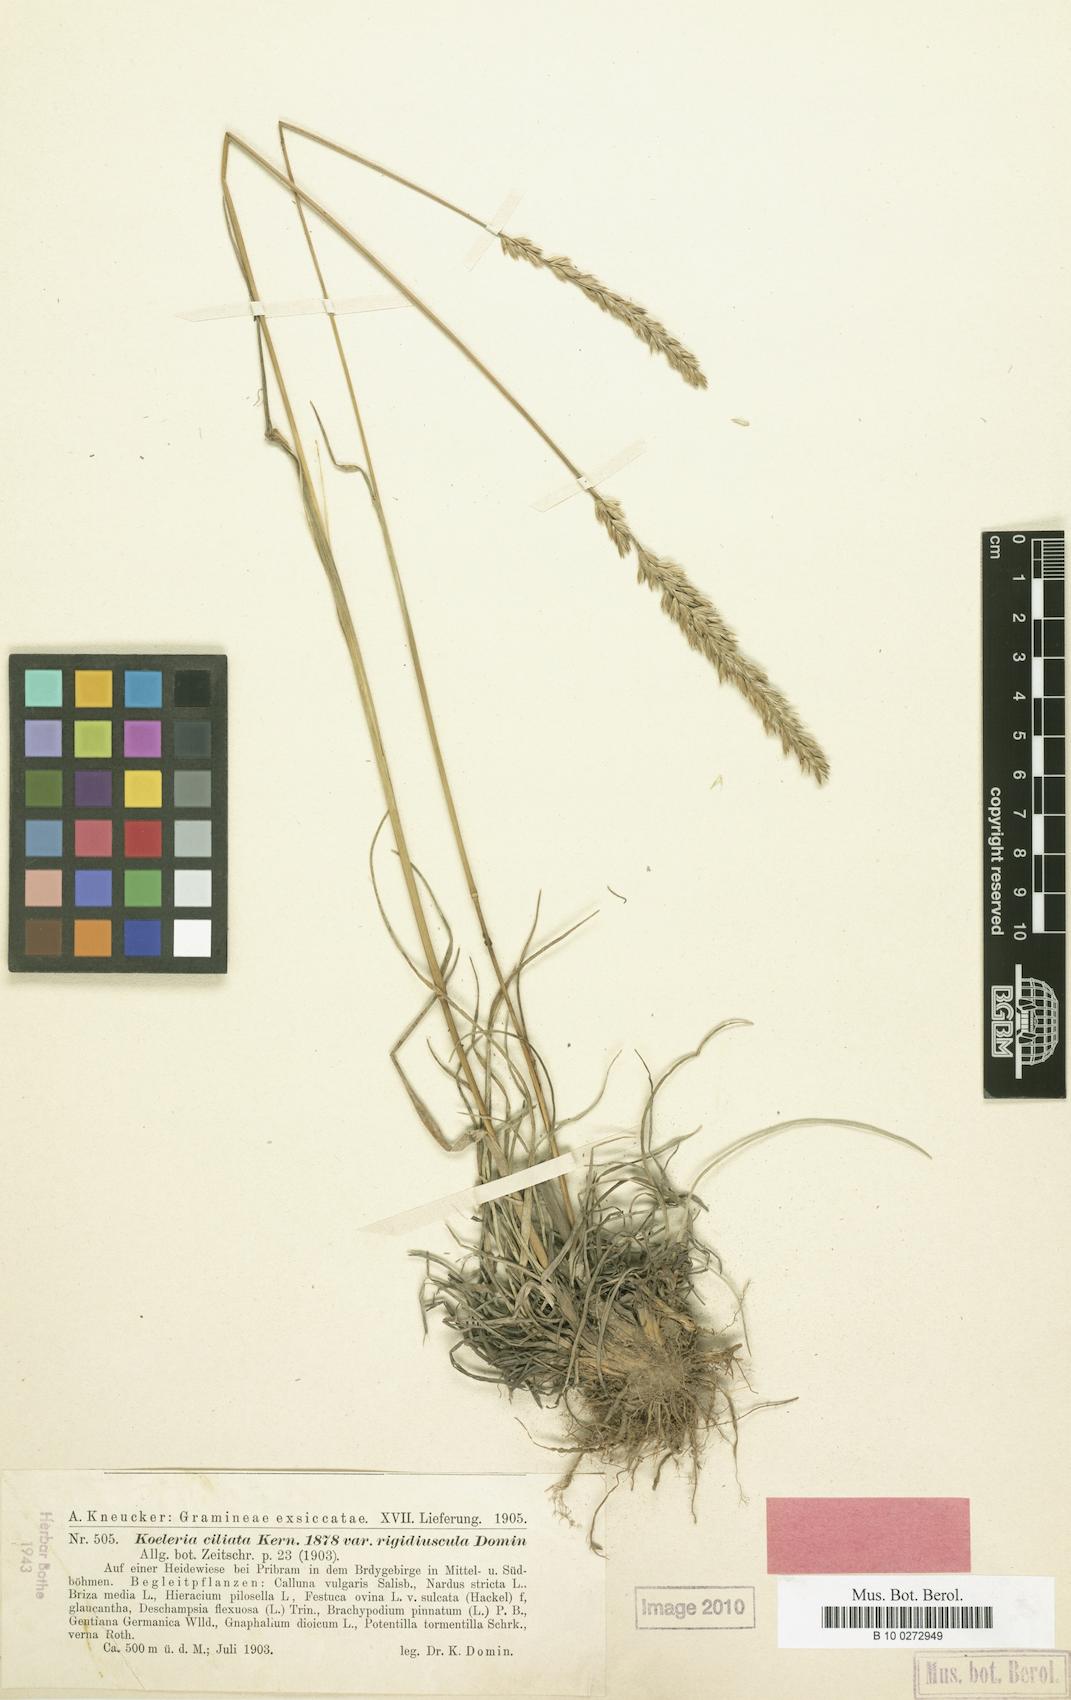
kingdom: Plantae
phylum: Tracheophyta
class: Liliopsida
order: Poales
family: Poaceae
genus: Koeleria
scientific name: Koeleria pyramidata
